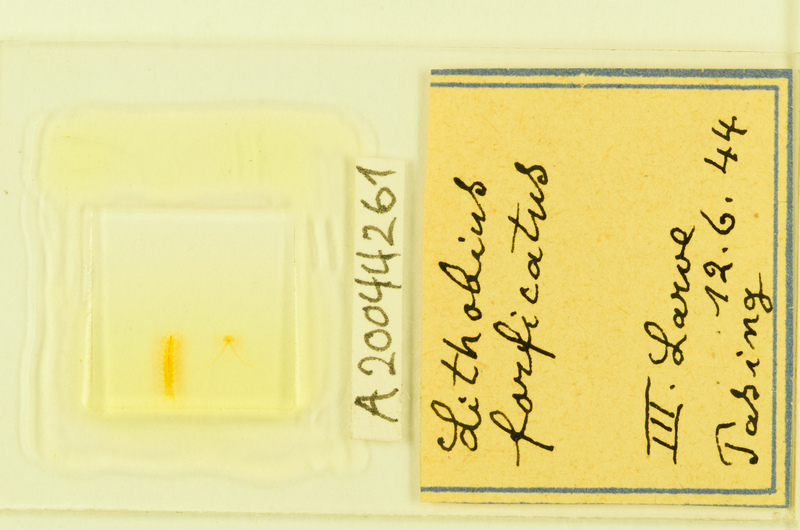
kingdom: Animalia
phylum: Arthropoda
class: Chilopoda
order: Lithobiomorpha
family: Lithobiidae
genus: Lithobius
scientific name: Lithobius forficatus
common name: Centipede
